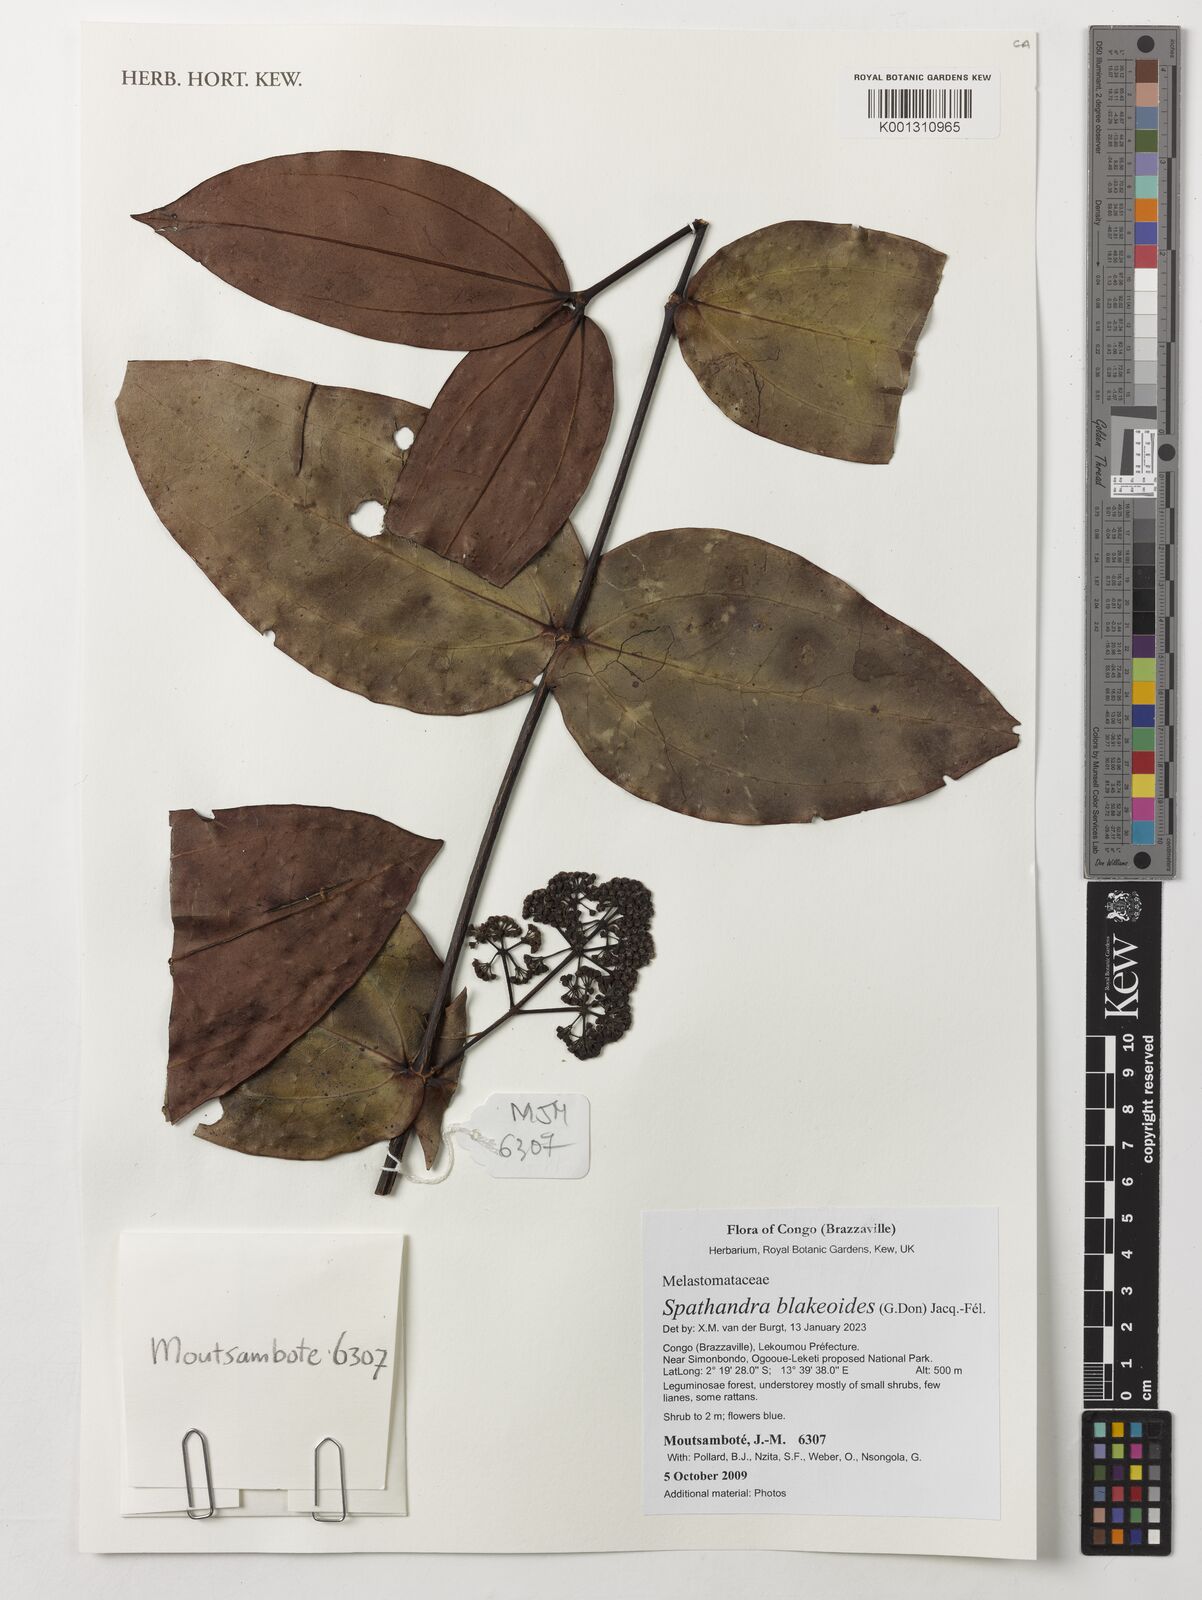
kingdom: Plantae
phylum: Tracheophyta
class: Magnoliopsida
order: Myrtales
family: Melastomataceae
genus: Spathandra
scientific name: Spathandra blakeoides
